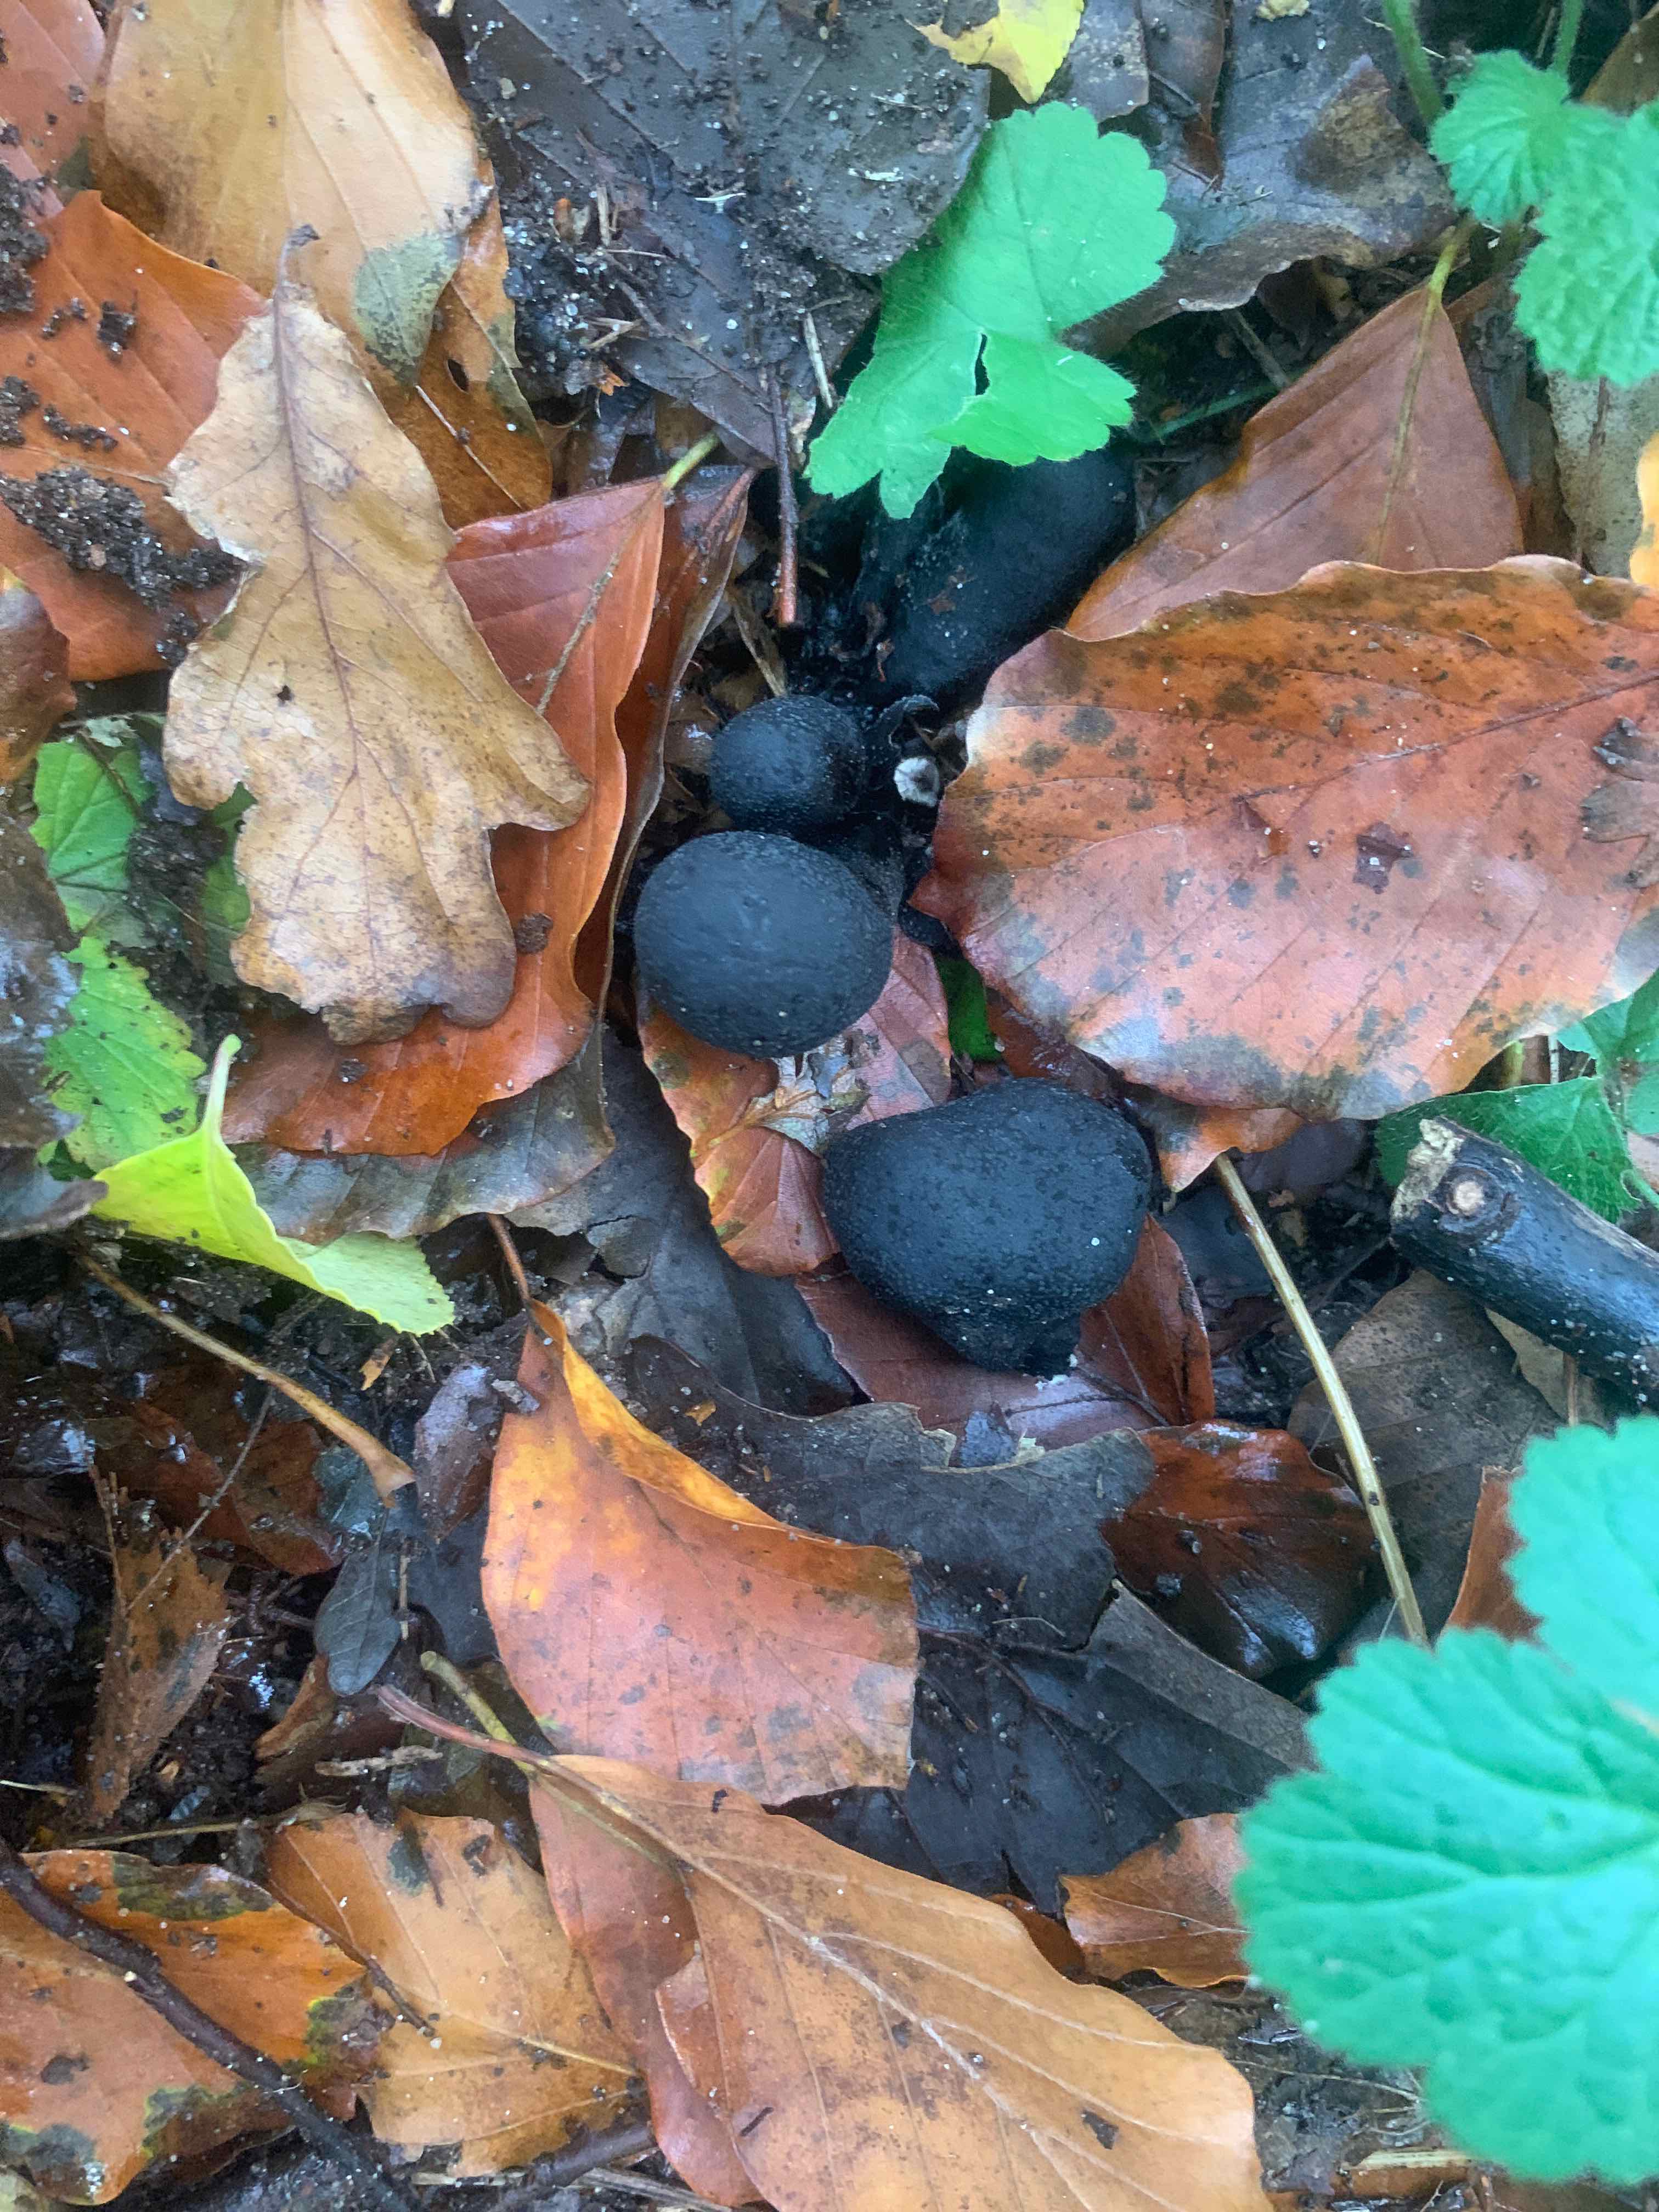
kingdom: Fungi
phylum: Ascomycota
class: Sordariomycetes
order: Xylariales
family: Xylariaceae
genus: Xylaria
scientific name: Xylaria polymorpha
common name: kølle-stødsvamp
